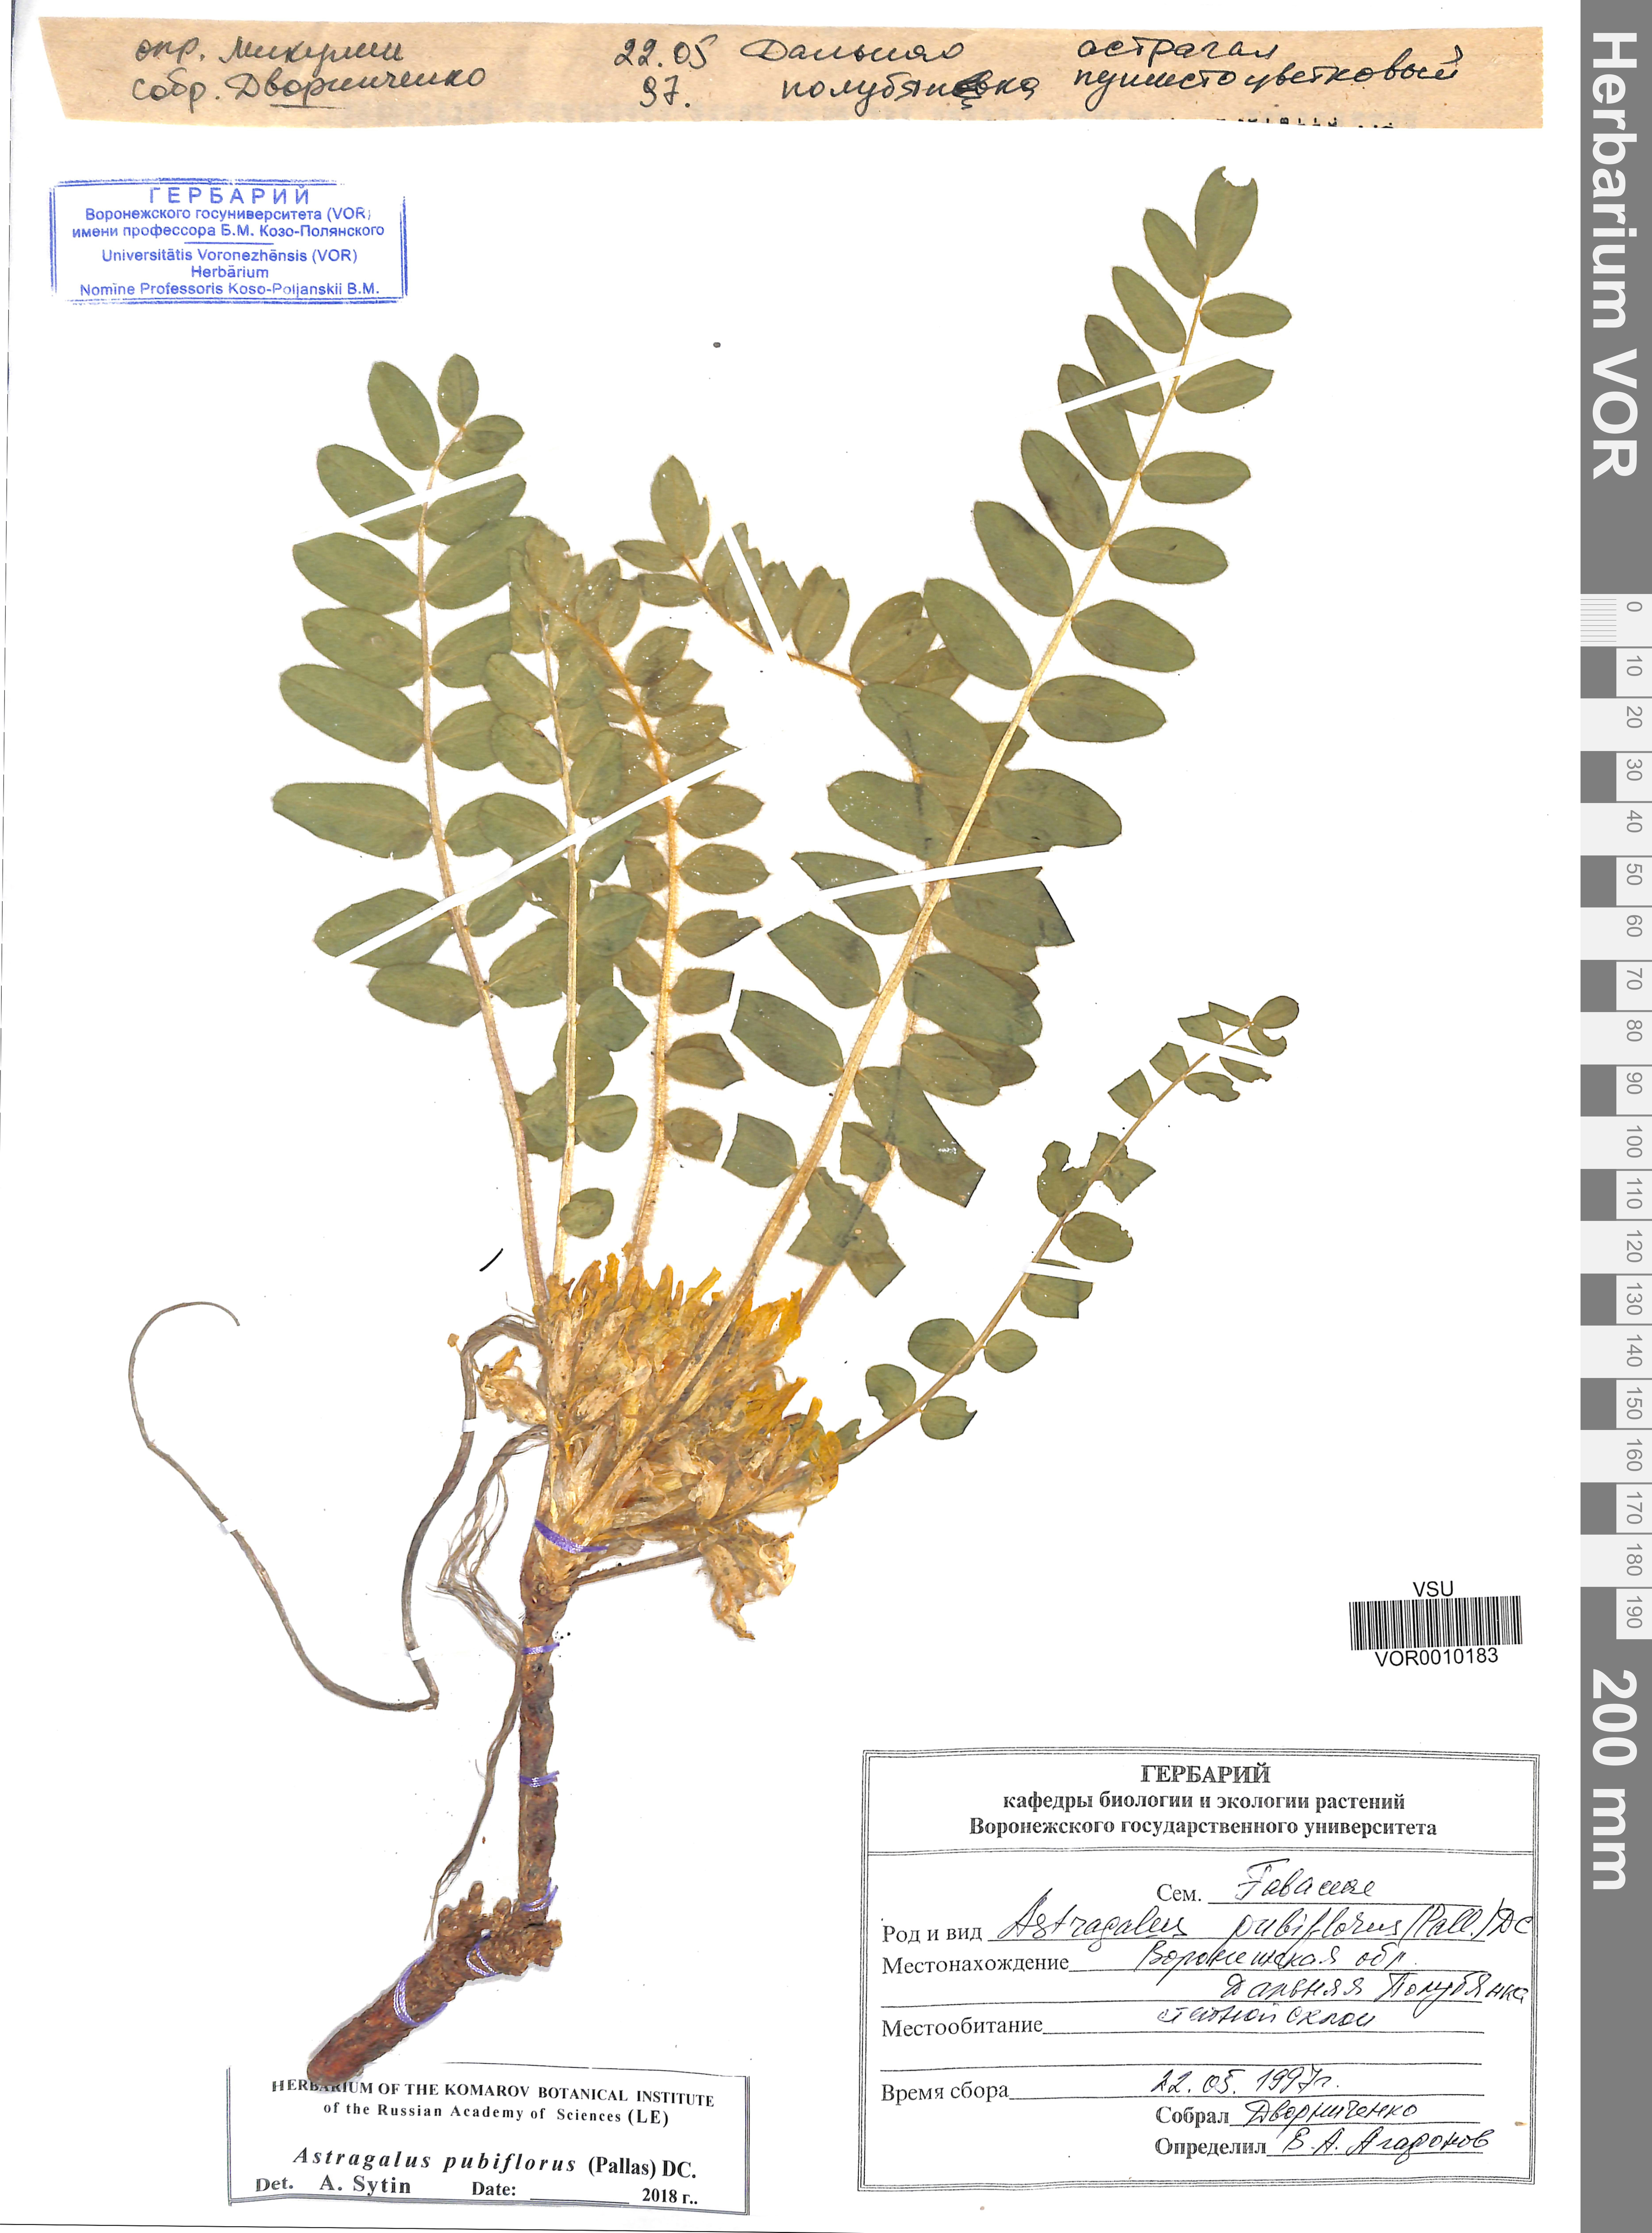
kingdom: Plantae
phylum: Tracheophyta
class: Magnoliopsida
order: Fabales
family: Fabaceae
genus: Astragalus
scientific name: Astragalus exscapus
